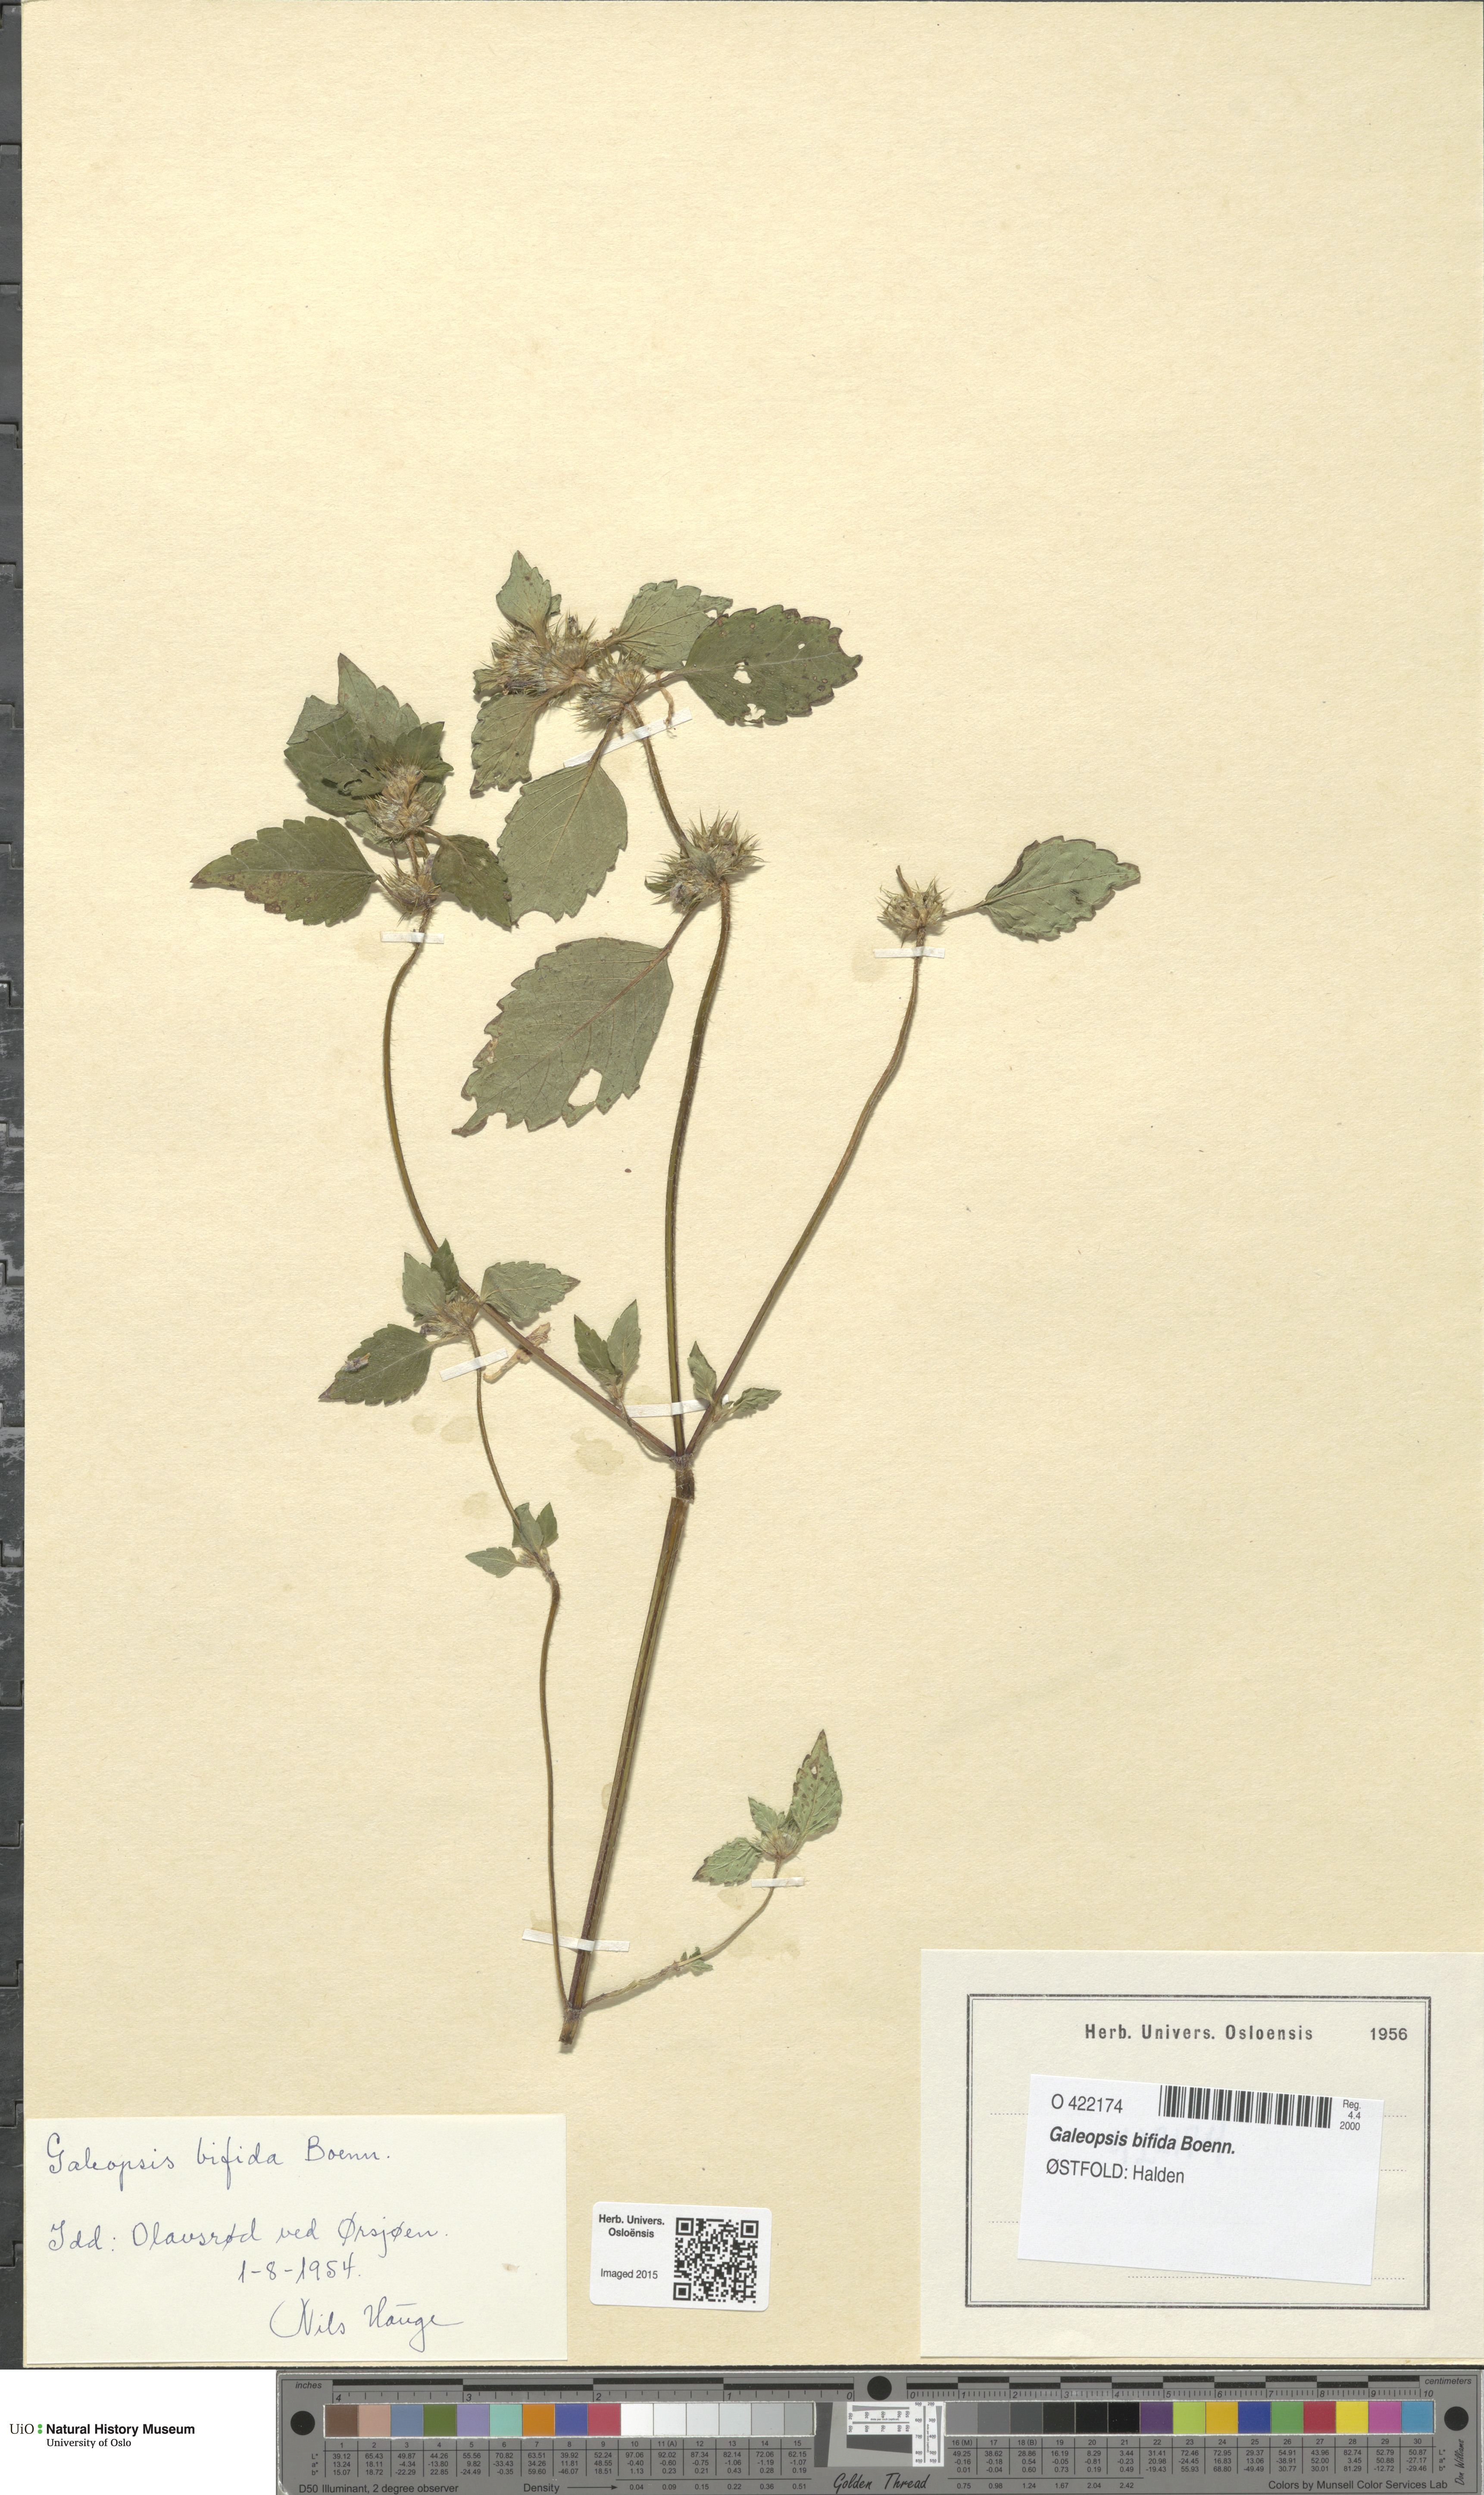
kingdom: Plantae
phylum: Tracheophyta
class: Magnoliopsida
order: Lamiales
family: Lamiaceae
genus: Galeopsis
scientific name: Galeopsis bifida
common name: Bifid hemp-nettle
